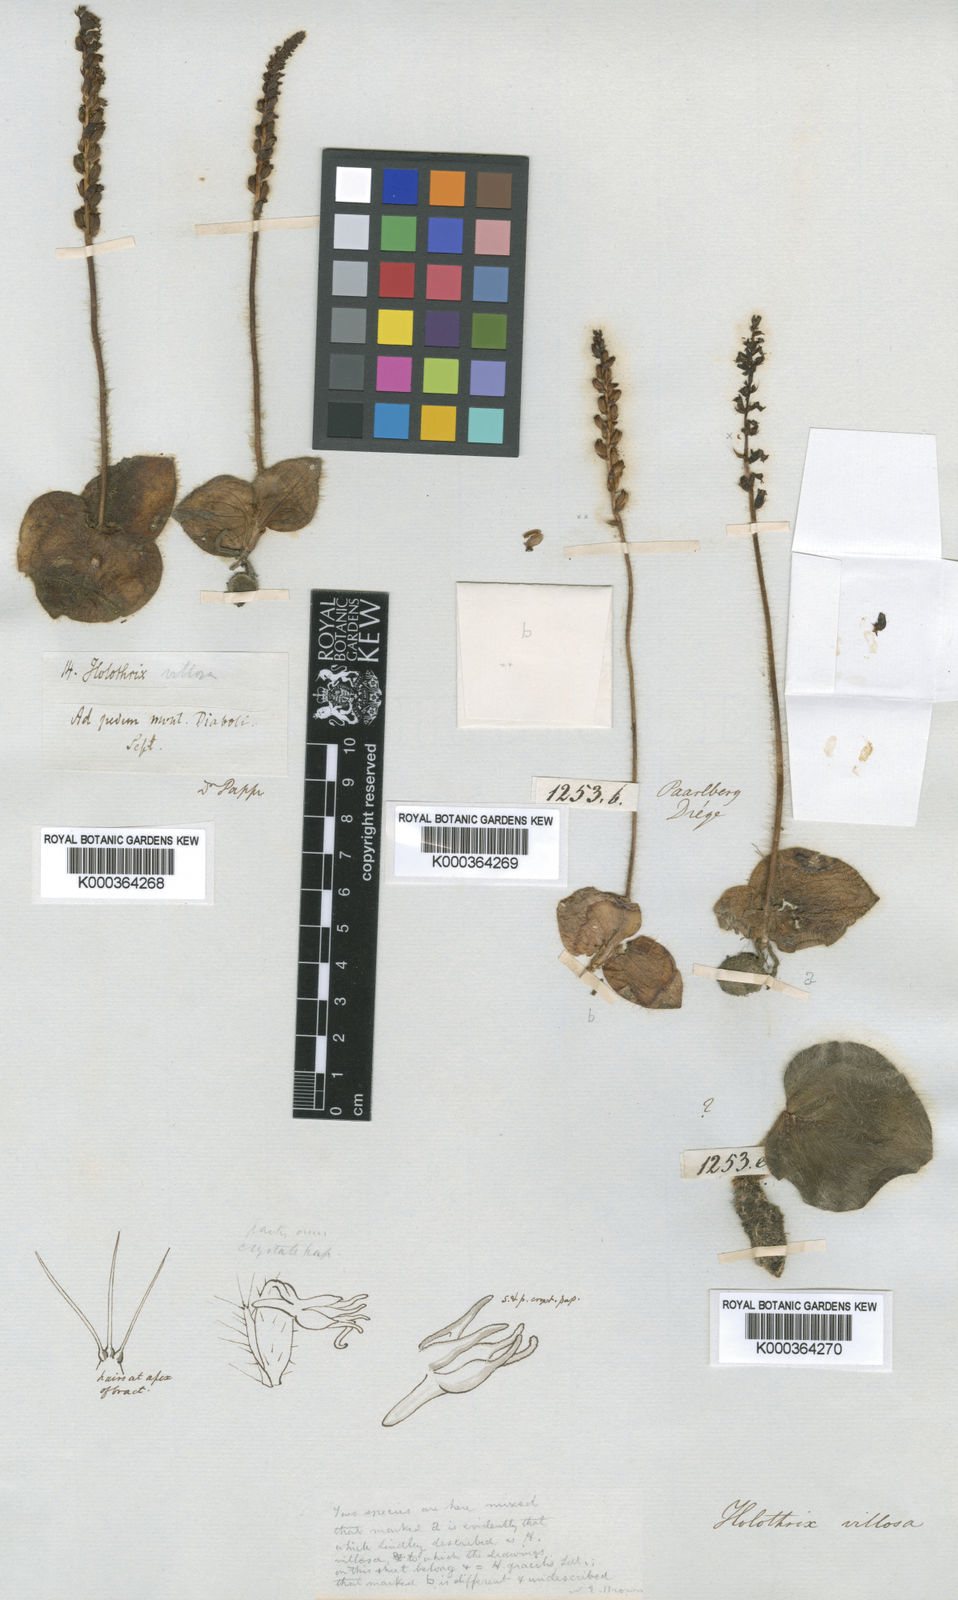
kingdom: Plantae
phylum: Tracheophyta
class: Liliopsida
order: Asparagales
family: Orchidaceae
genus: Holothrix
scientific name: Holothrix villosa
